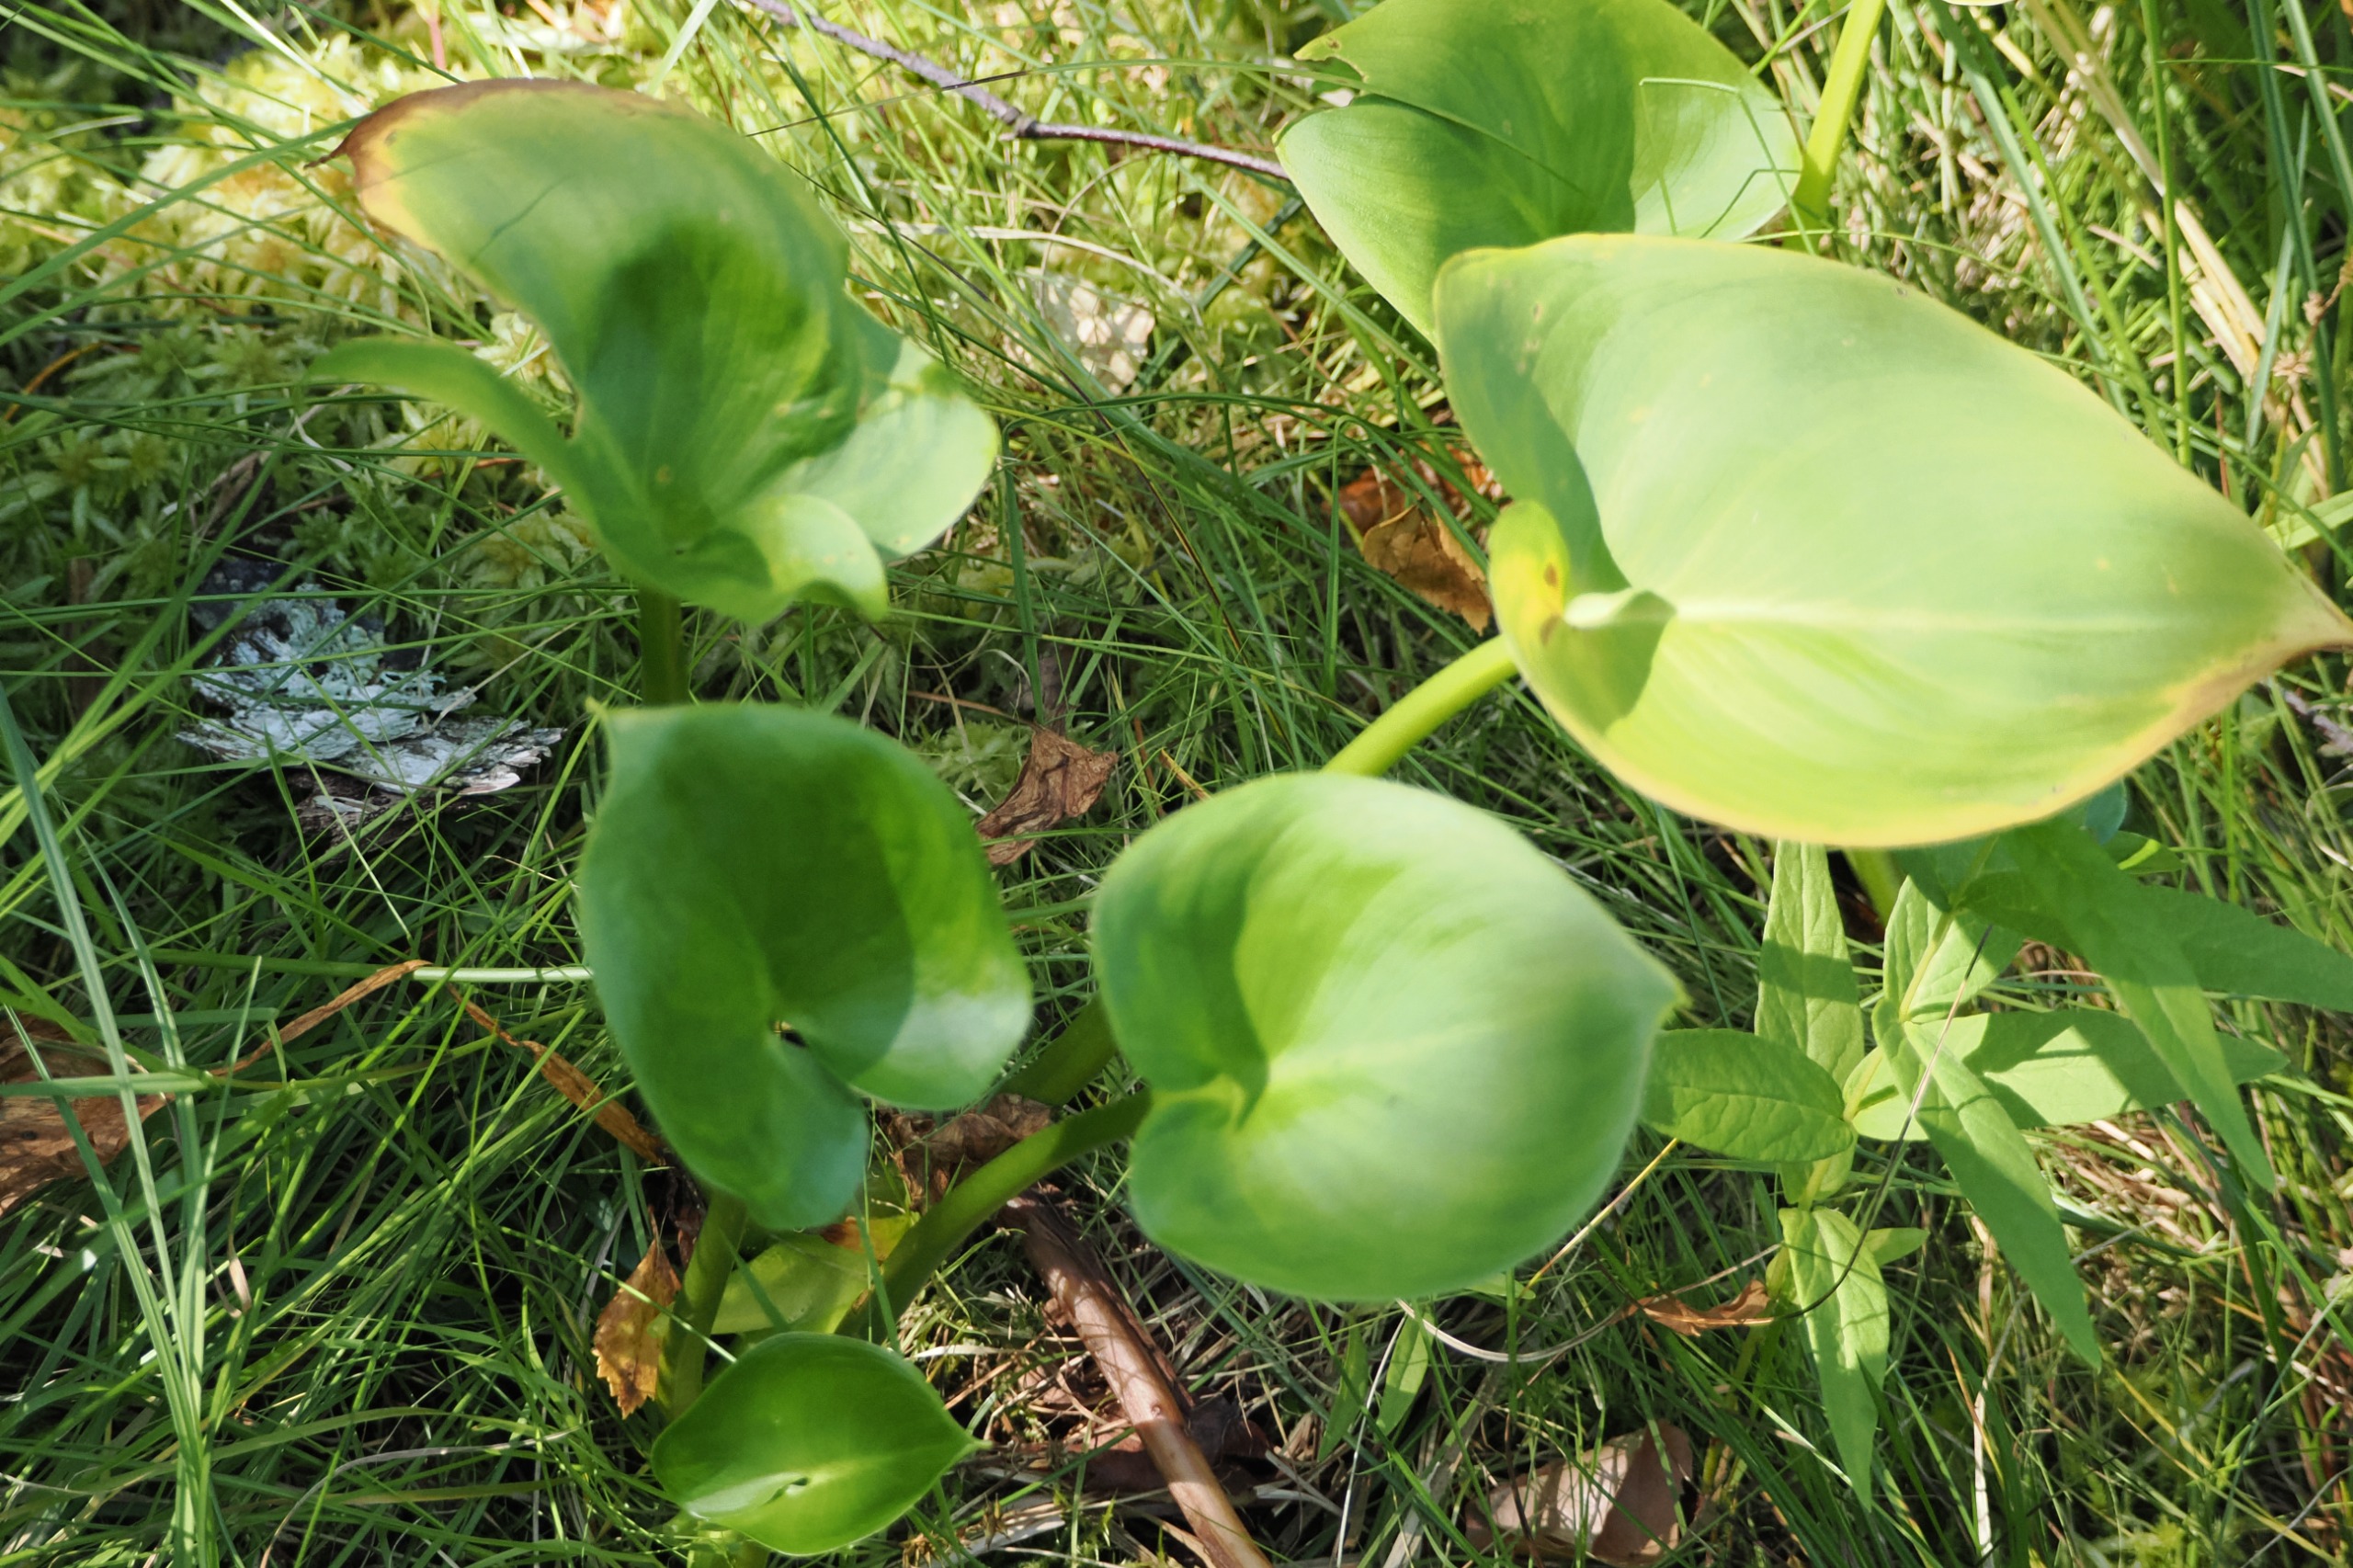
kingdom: Plantae
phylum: Tracheophyta
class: Liliopsida
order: Alismatales
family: Araceae
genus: Calla
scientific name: Calla palustris
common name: Kærmysse
